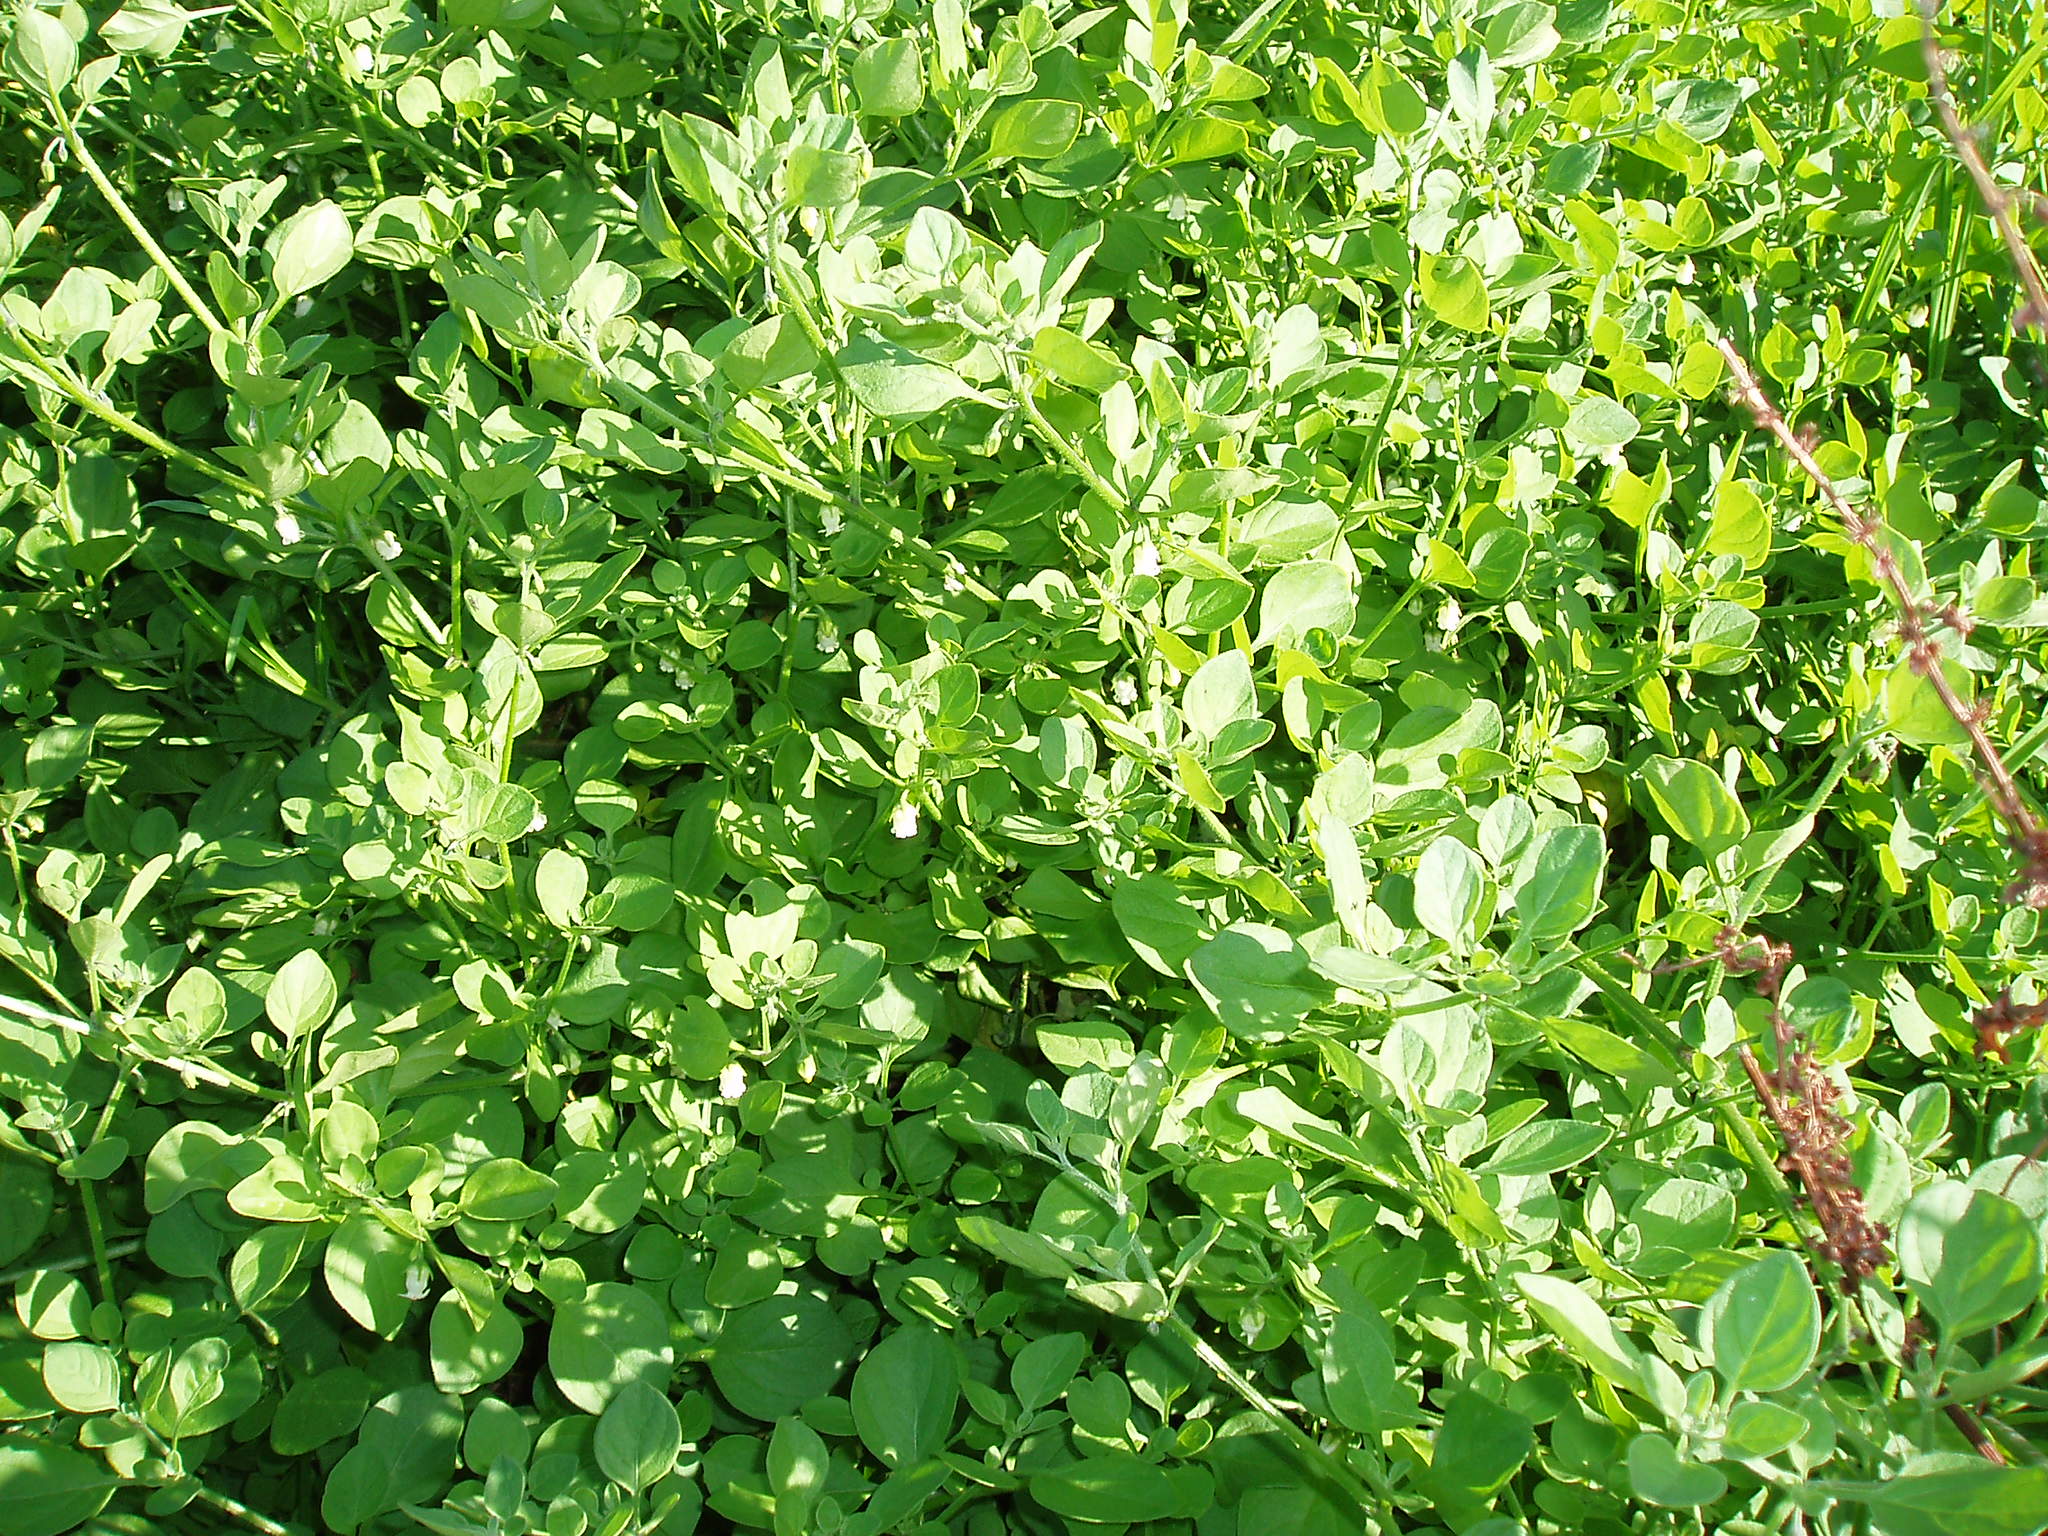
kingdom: Plantae
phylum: Tracheophyta
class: Magnoliopsida
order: Solanales
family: Solanaceae
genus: Salpichroa
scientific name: Salpichroa origanifolia
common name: Lily-of-the-valley-vine
